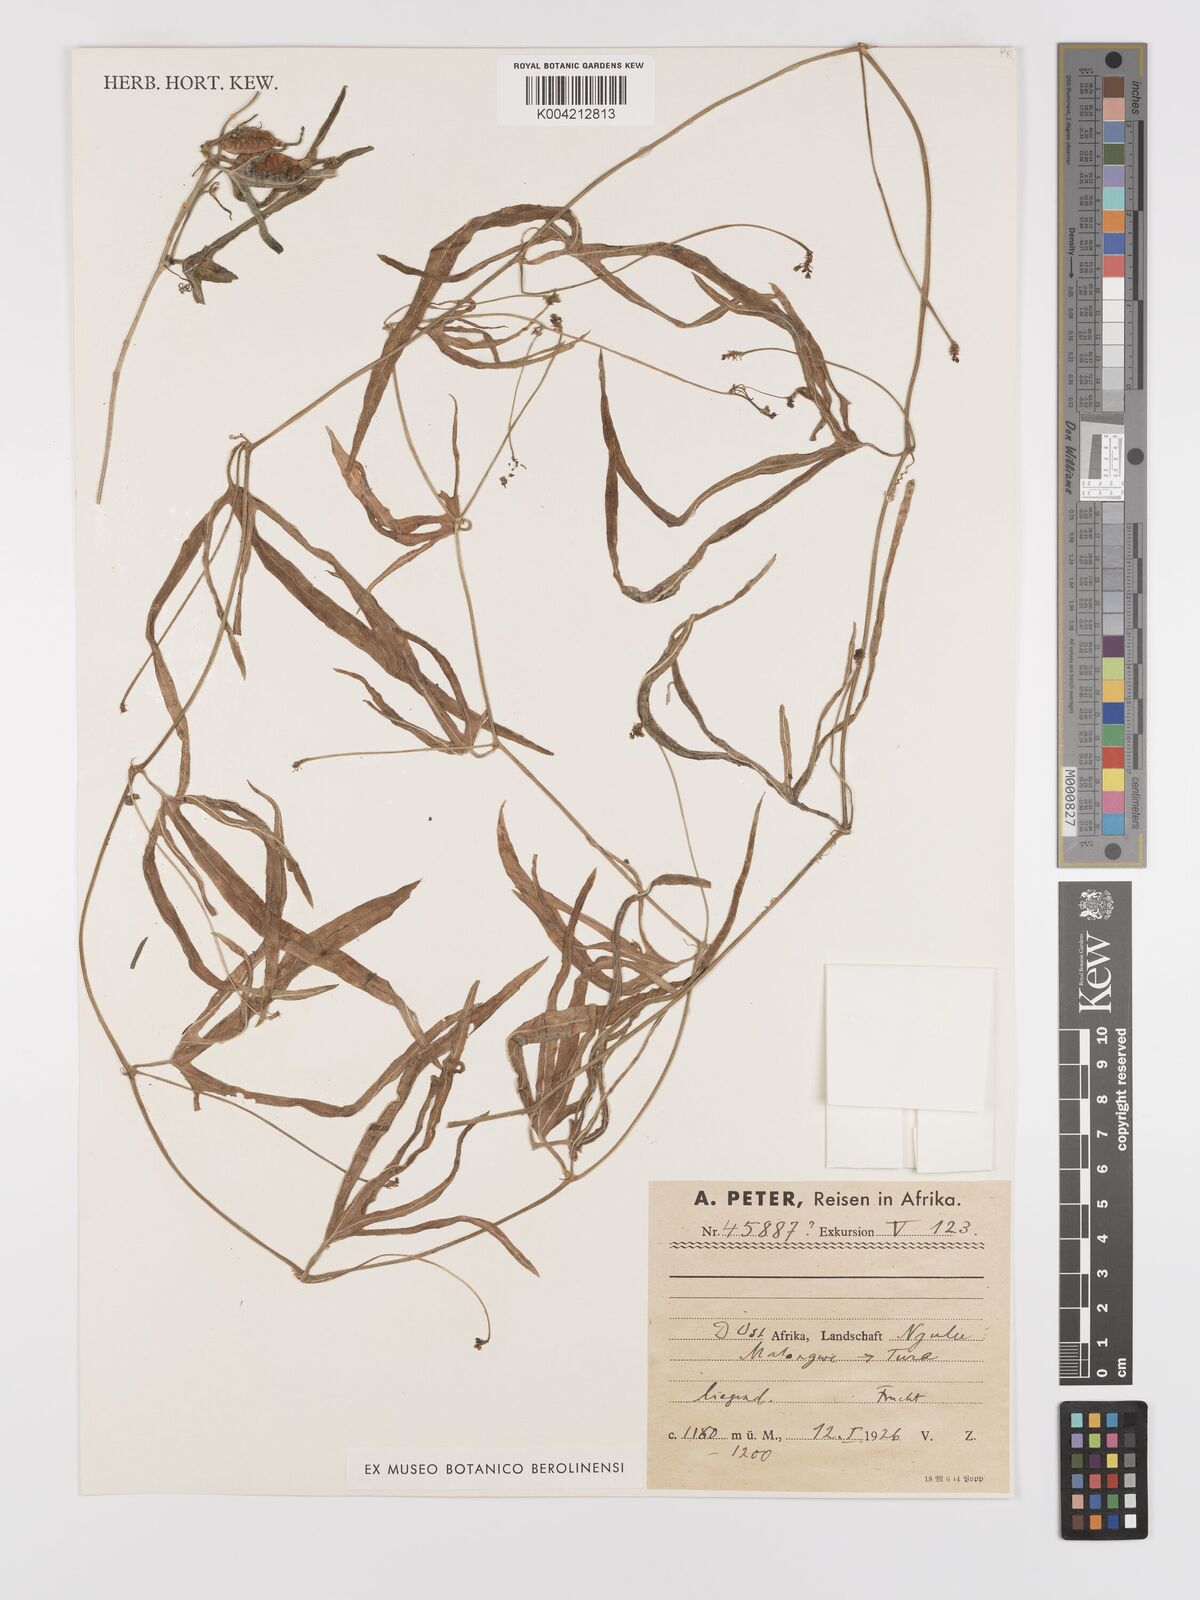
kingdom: Plantae
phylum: Tracheophyta
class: Magnoliopsida
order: Cucurbitales
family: Cucurbitaceae
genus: Corallocarpus
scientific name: Corallocarpus tenuissimus
